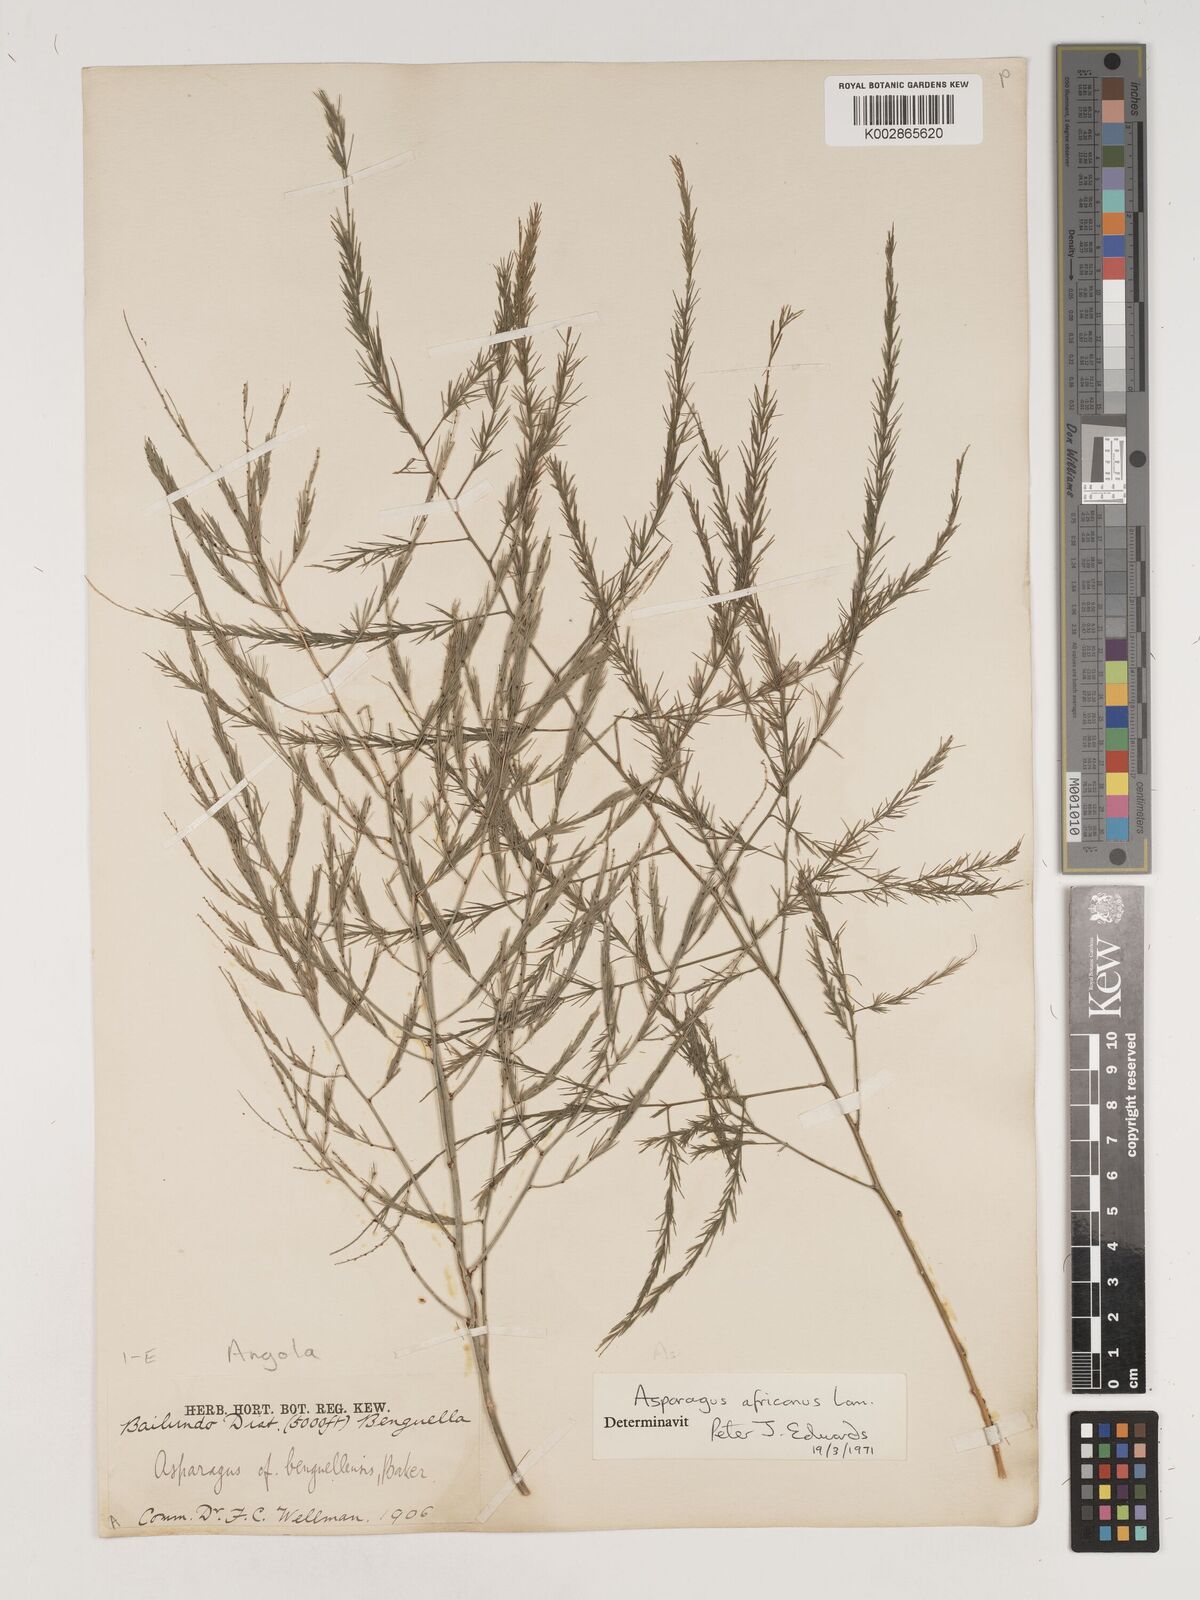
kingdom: Plantae
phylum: Tracheophyta
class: Liliopsida
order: Asparagales
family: Asparagaceae
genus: Asparagus
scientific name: Asparagus africanus
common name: Asparagus-fern
